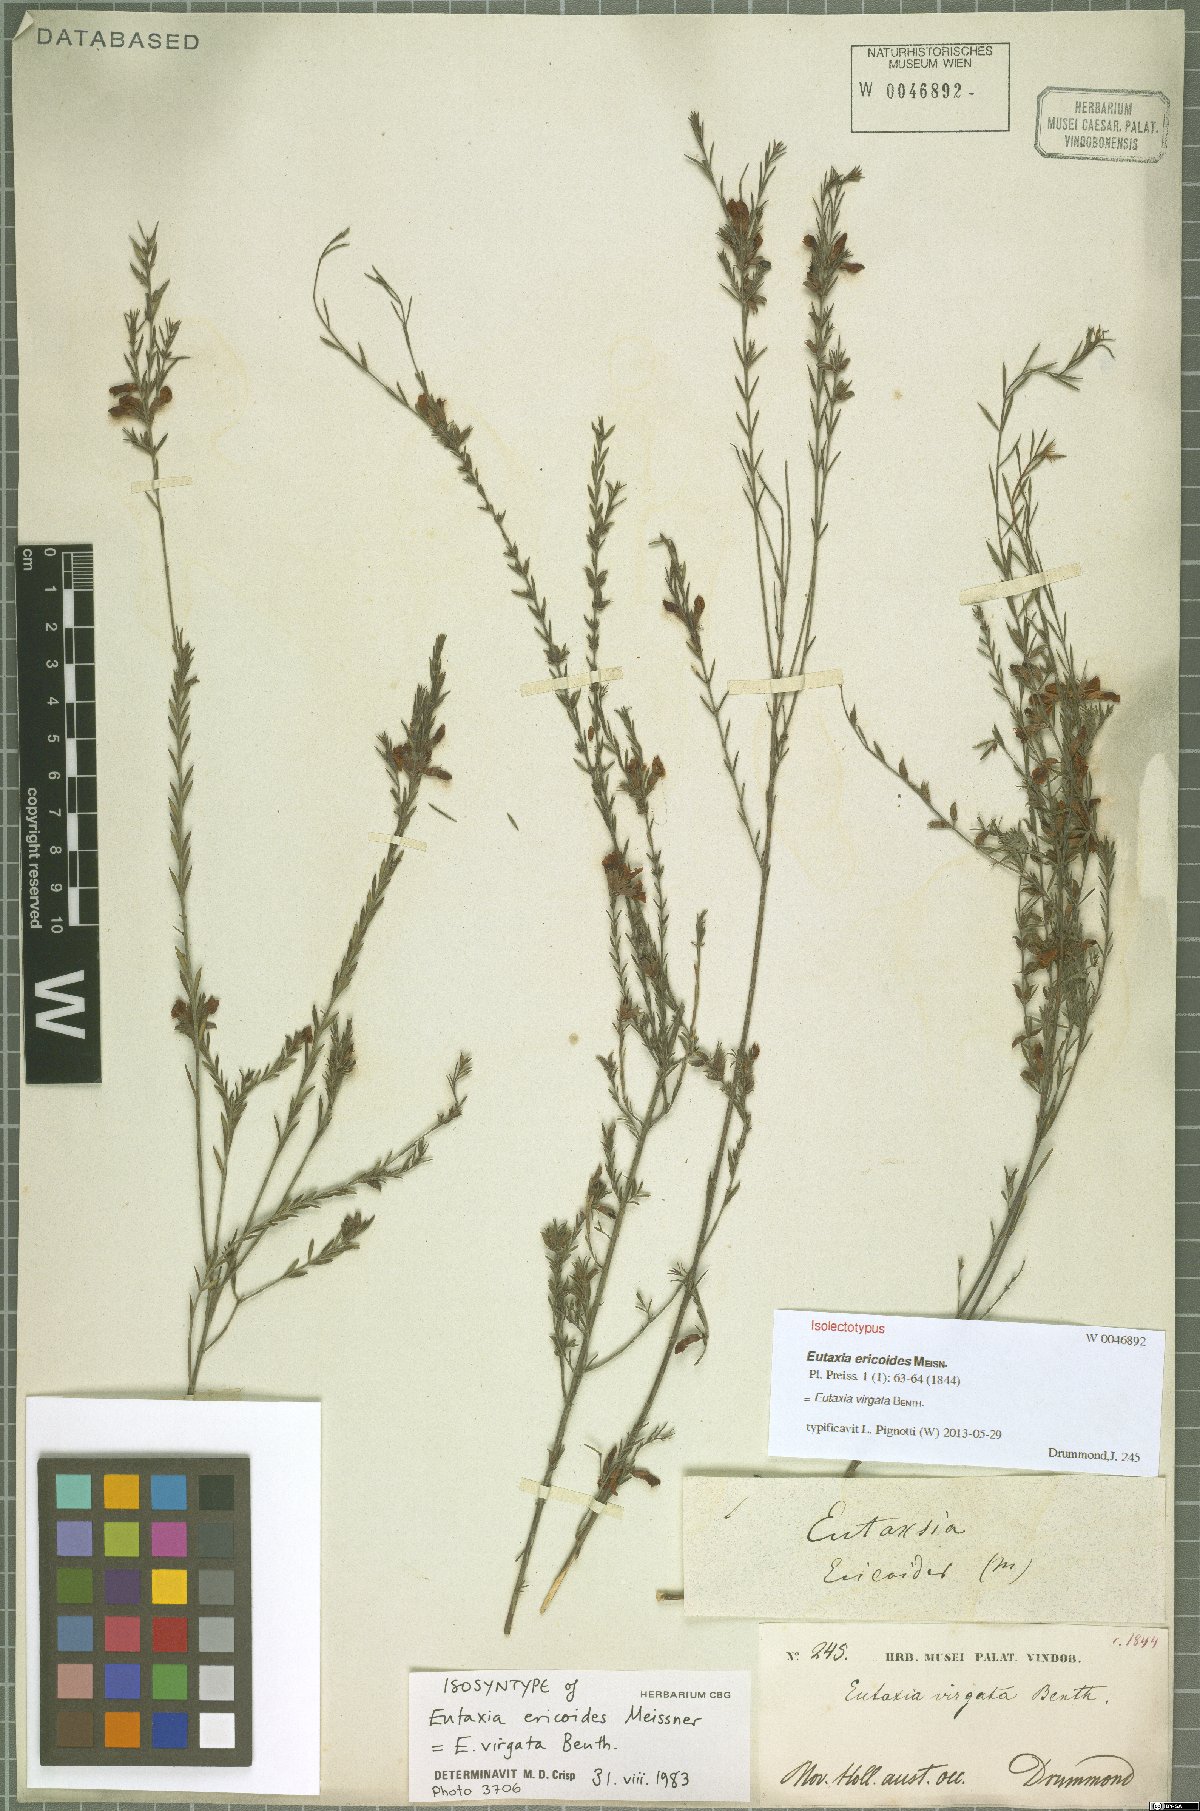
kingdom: Plantae
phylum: Tracheophyta
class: Magnoliopsida
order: Fabales
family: Fabaceae
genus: Eutaxia
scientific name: Eutaxia virgata
